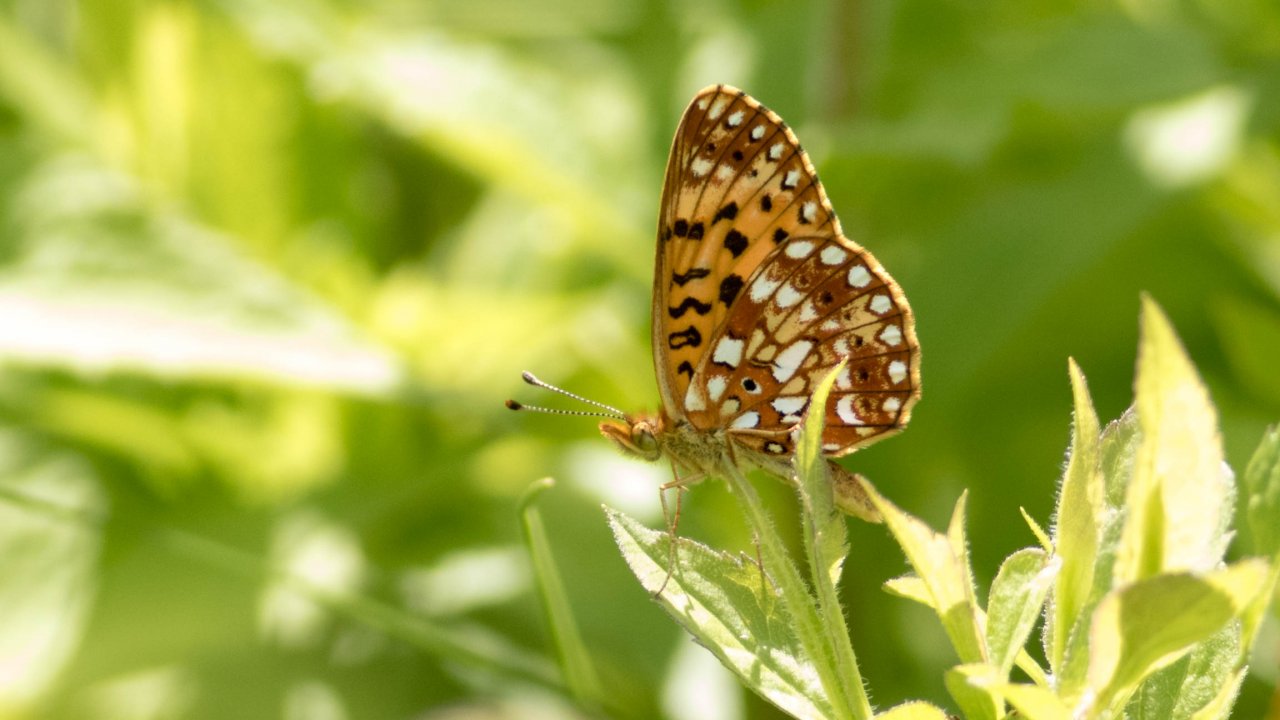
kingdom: Animalia
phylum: Arthropoda
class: Insecta
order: Lepidoptera
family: Nymphalidae
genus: Boloria
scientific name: Boloria selene
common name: Silver-bordered Fritillary
